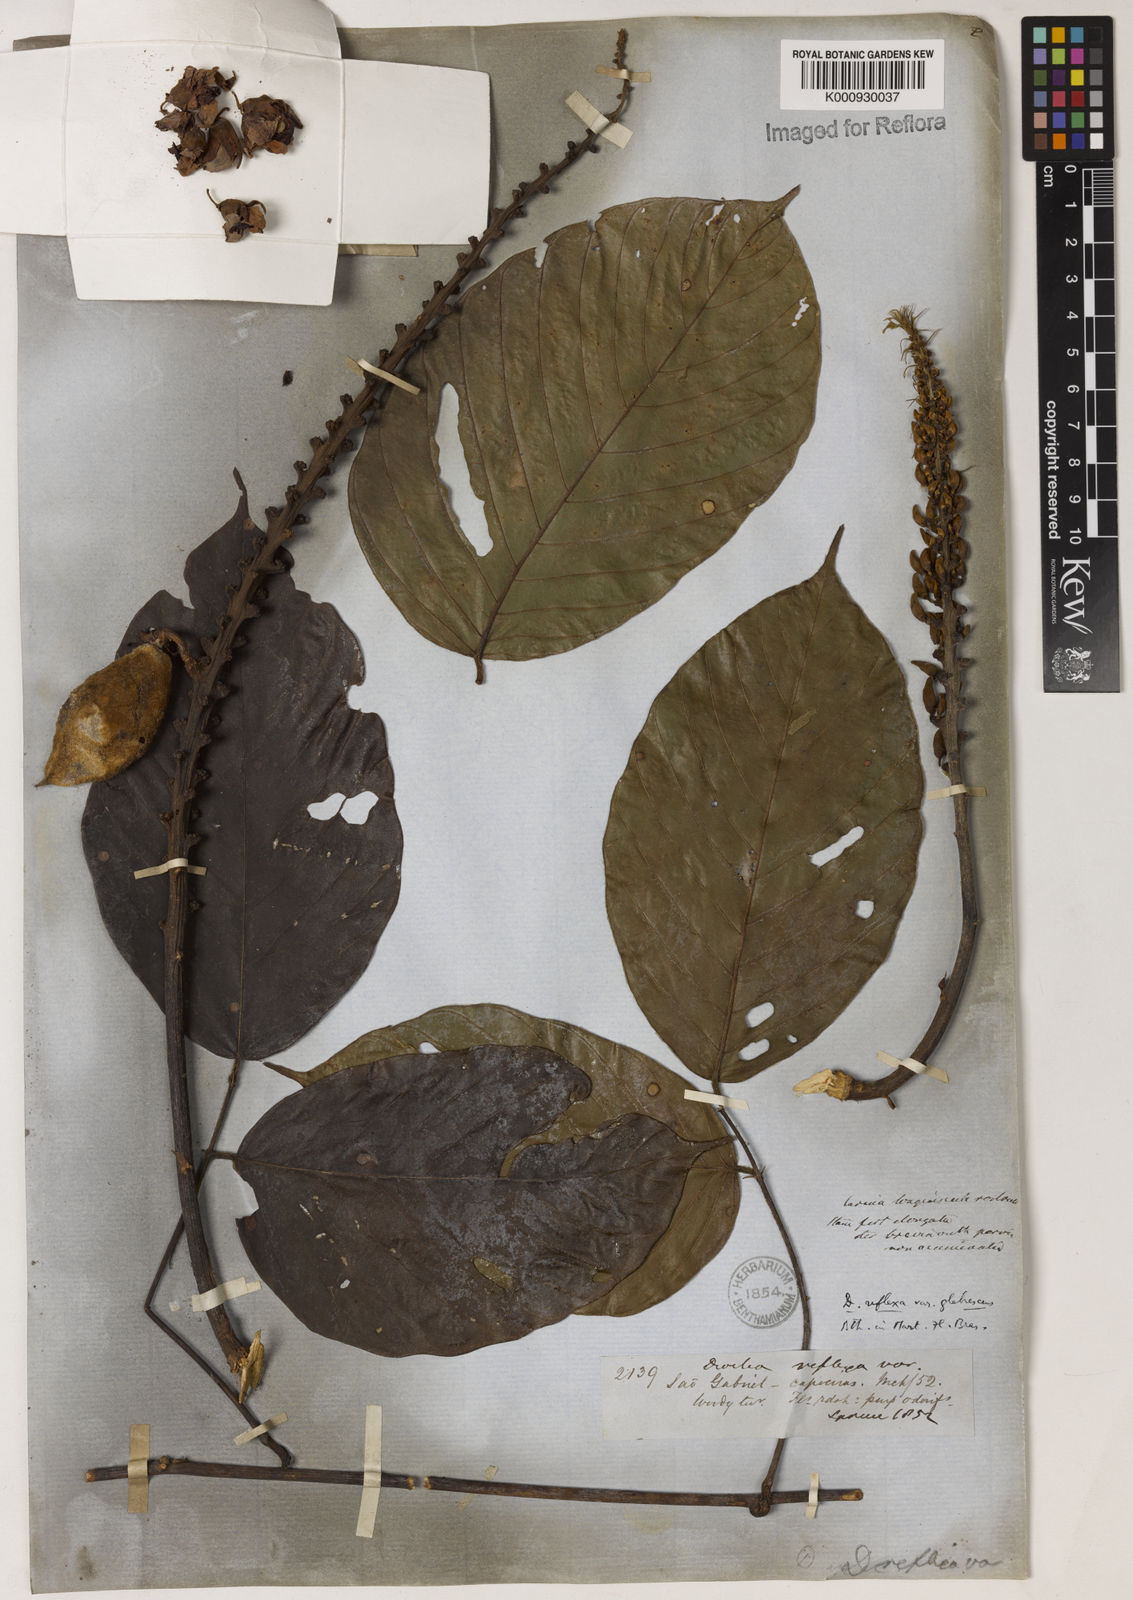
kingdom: Plantae
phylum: Tracheophyta
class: Magnoliopsida
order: Fabales
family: Fabaceae
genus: Macropsychanthus
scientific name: Macropsychanthus malacocarpus
